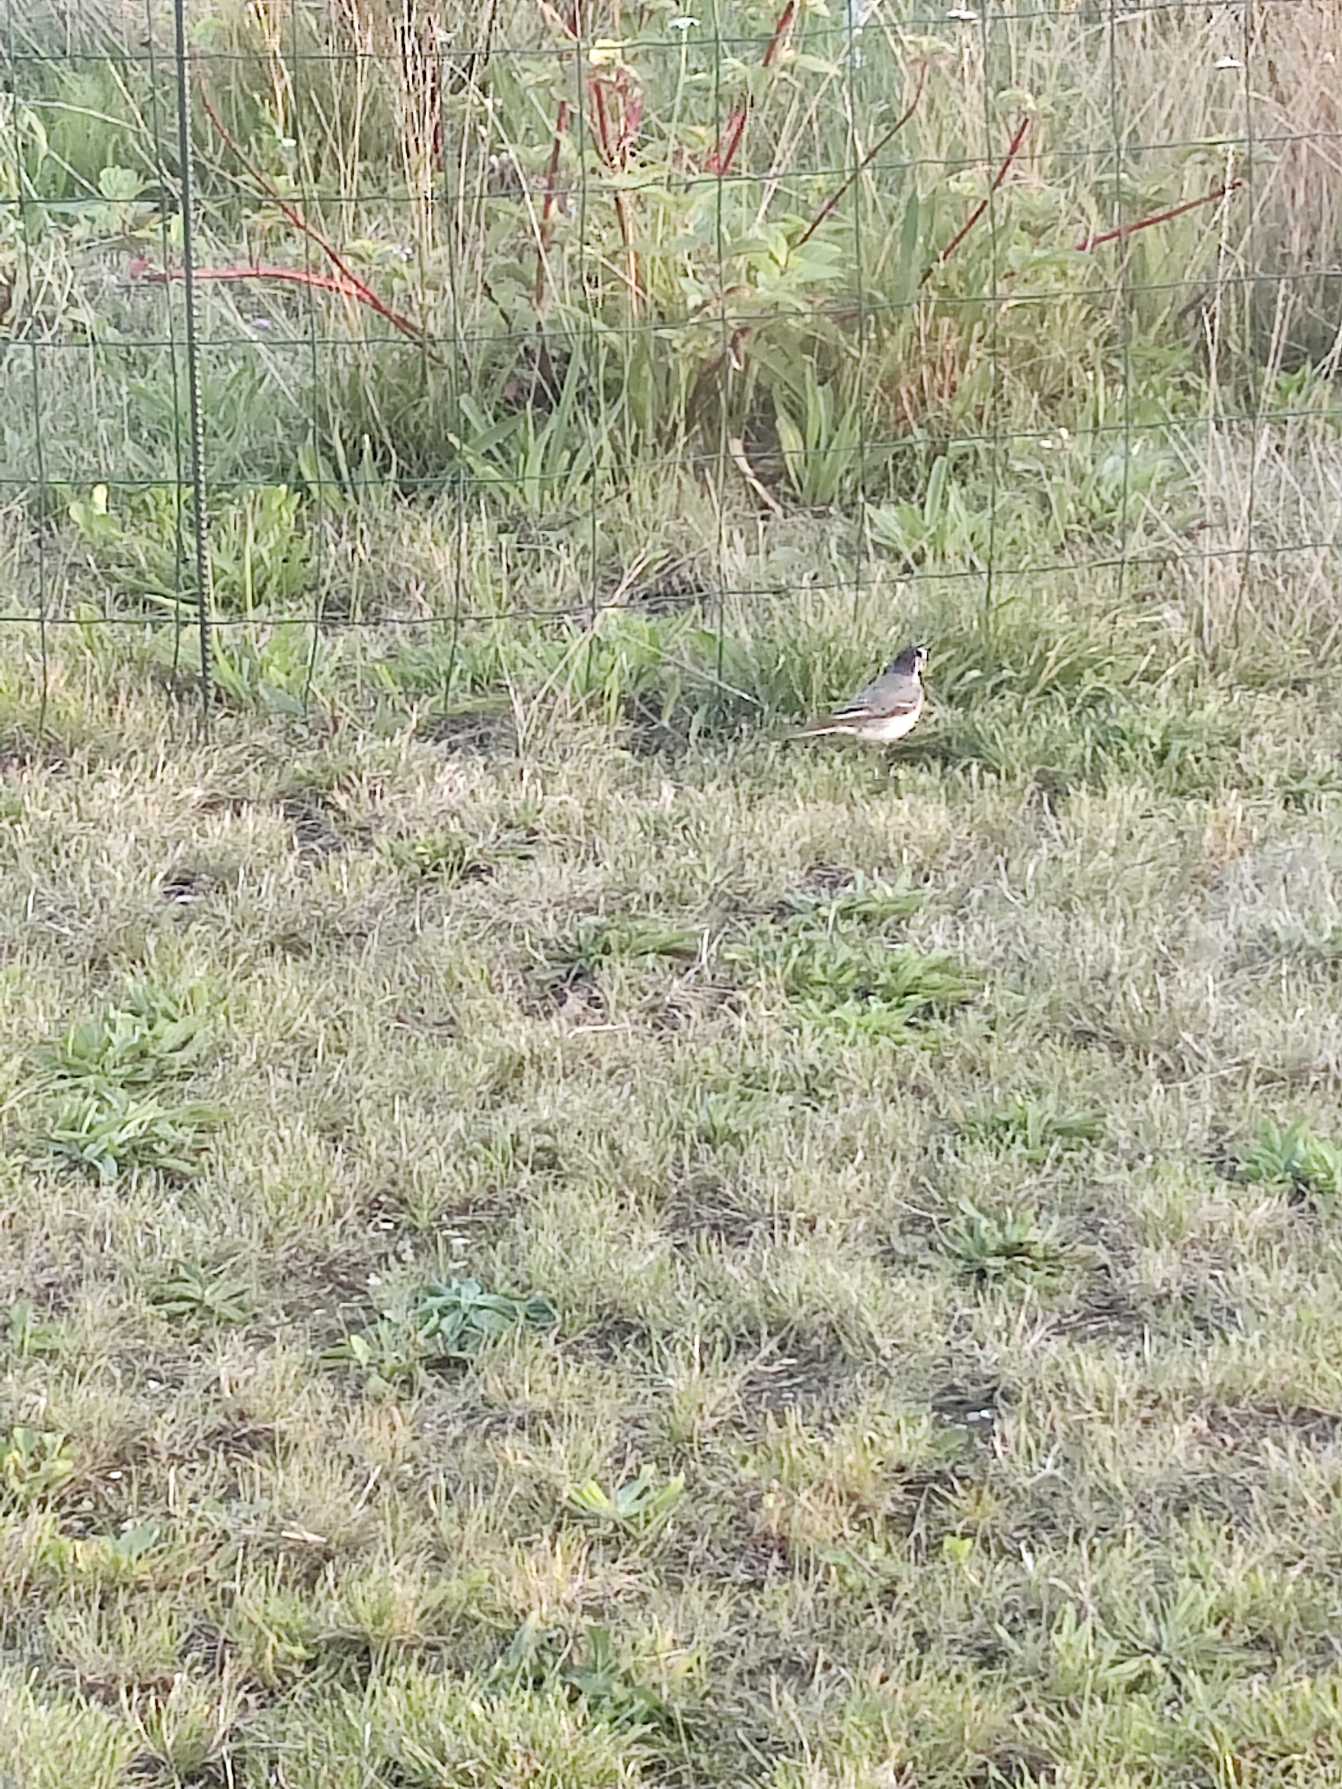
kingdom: Animalia
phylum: Chordata
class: Aves
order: Passeriformes
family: Motacillidae
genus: Motacilla
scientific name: Motacilla alba
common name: Hvid vipstjert
